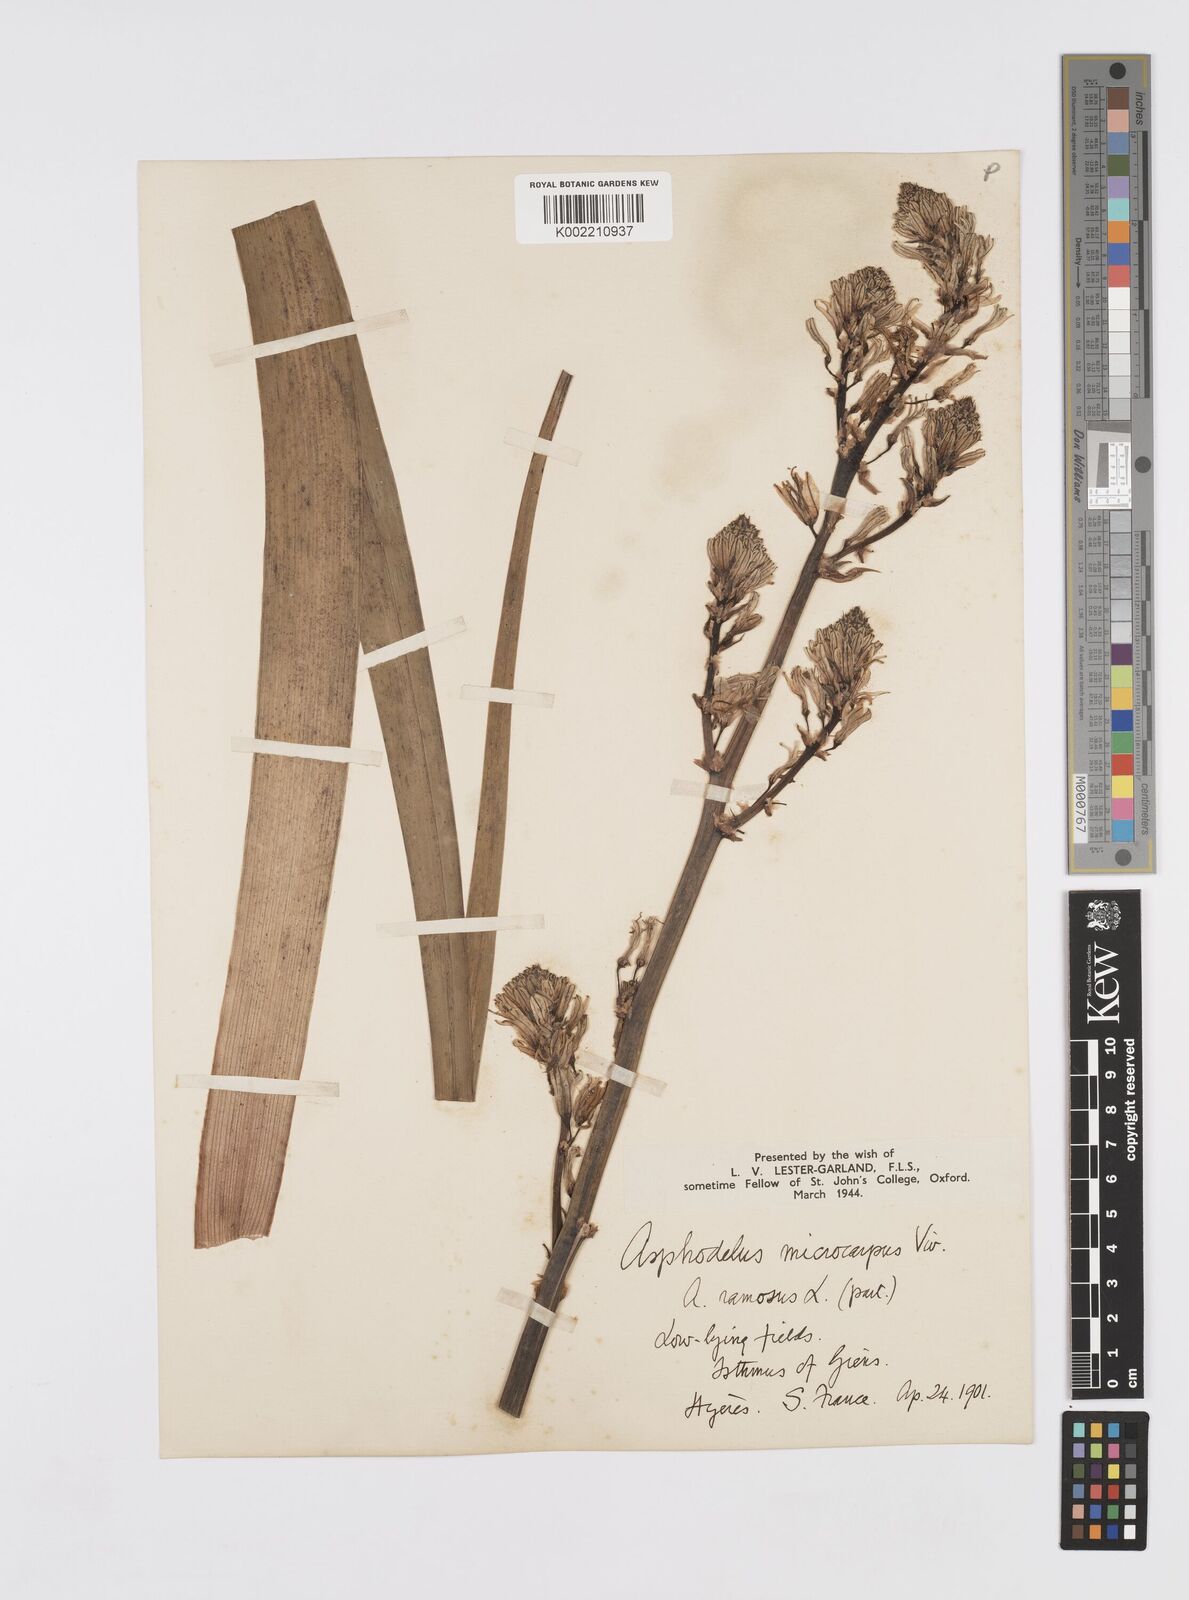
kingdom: Plantae
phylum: Tracheophyta
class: Liliopsida
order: Asparagales
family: Asphodelaceae
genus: Asphodelus
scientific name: Asphodelus ramosus
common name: Silverrod
